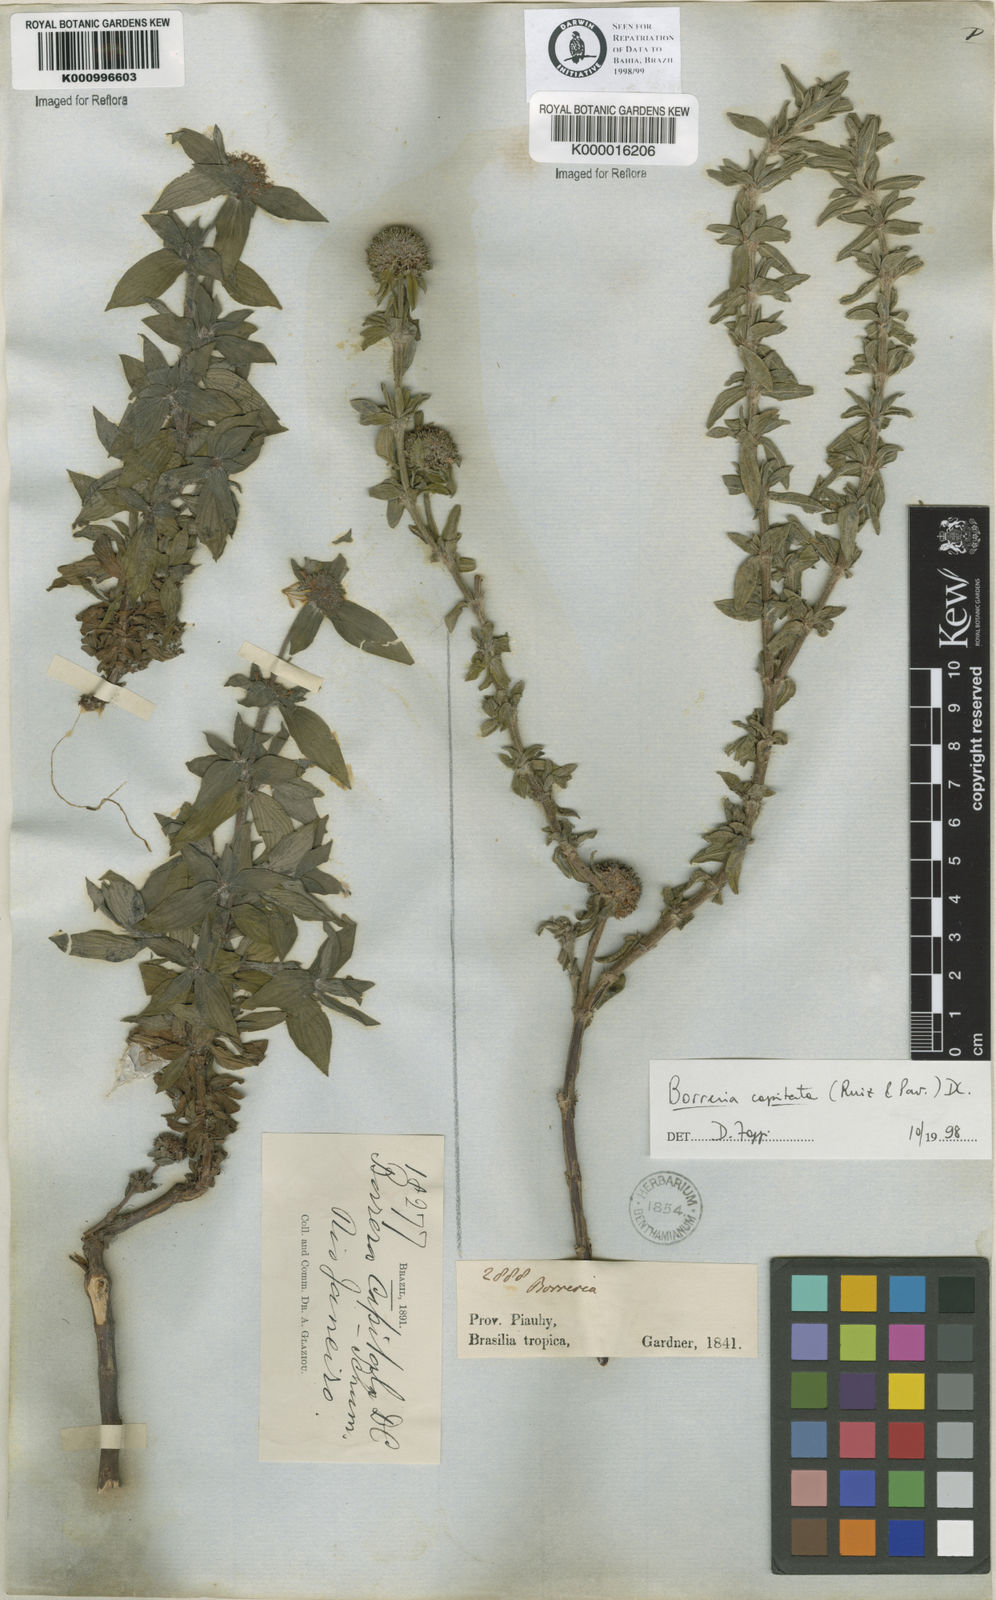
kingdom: Plantae
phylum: Tracheophyta
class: Magnoliopsida
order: Gentianales
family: Rubiaceae
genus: Spermacoce
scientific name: Spermacoce capitata
